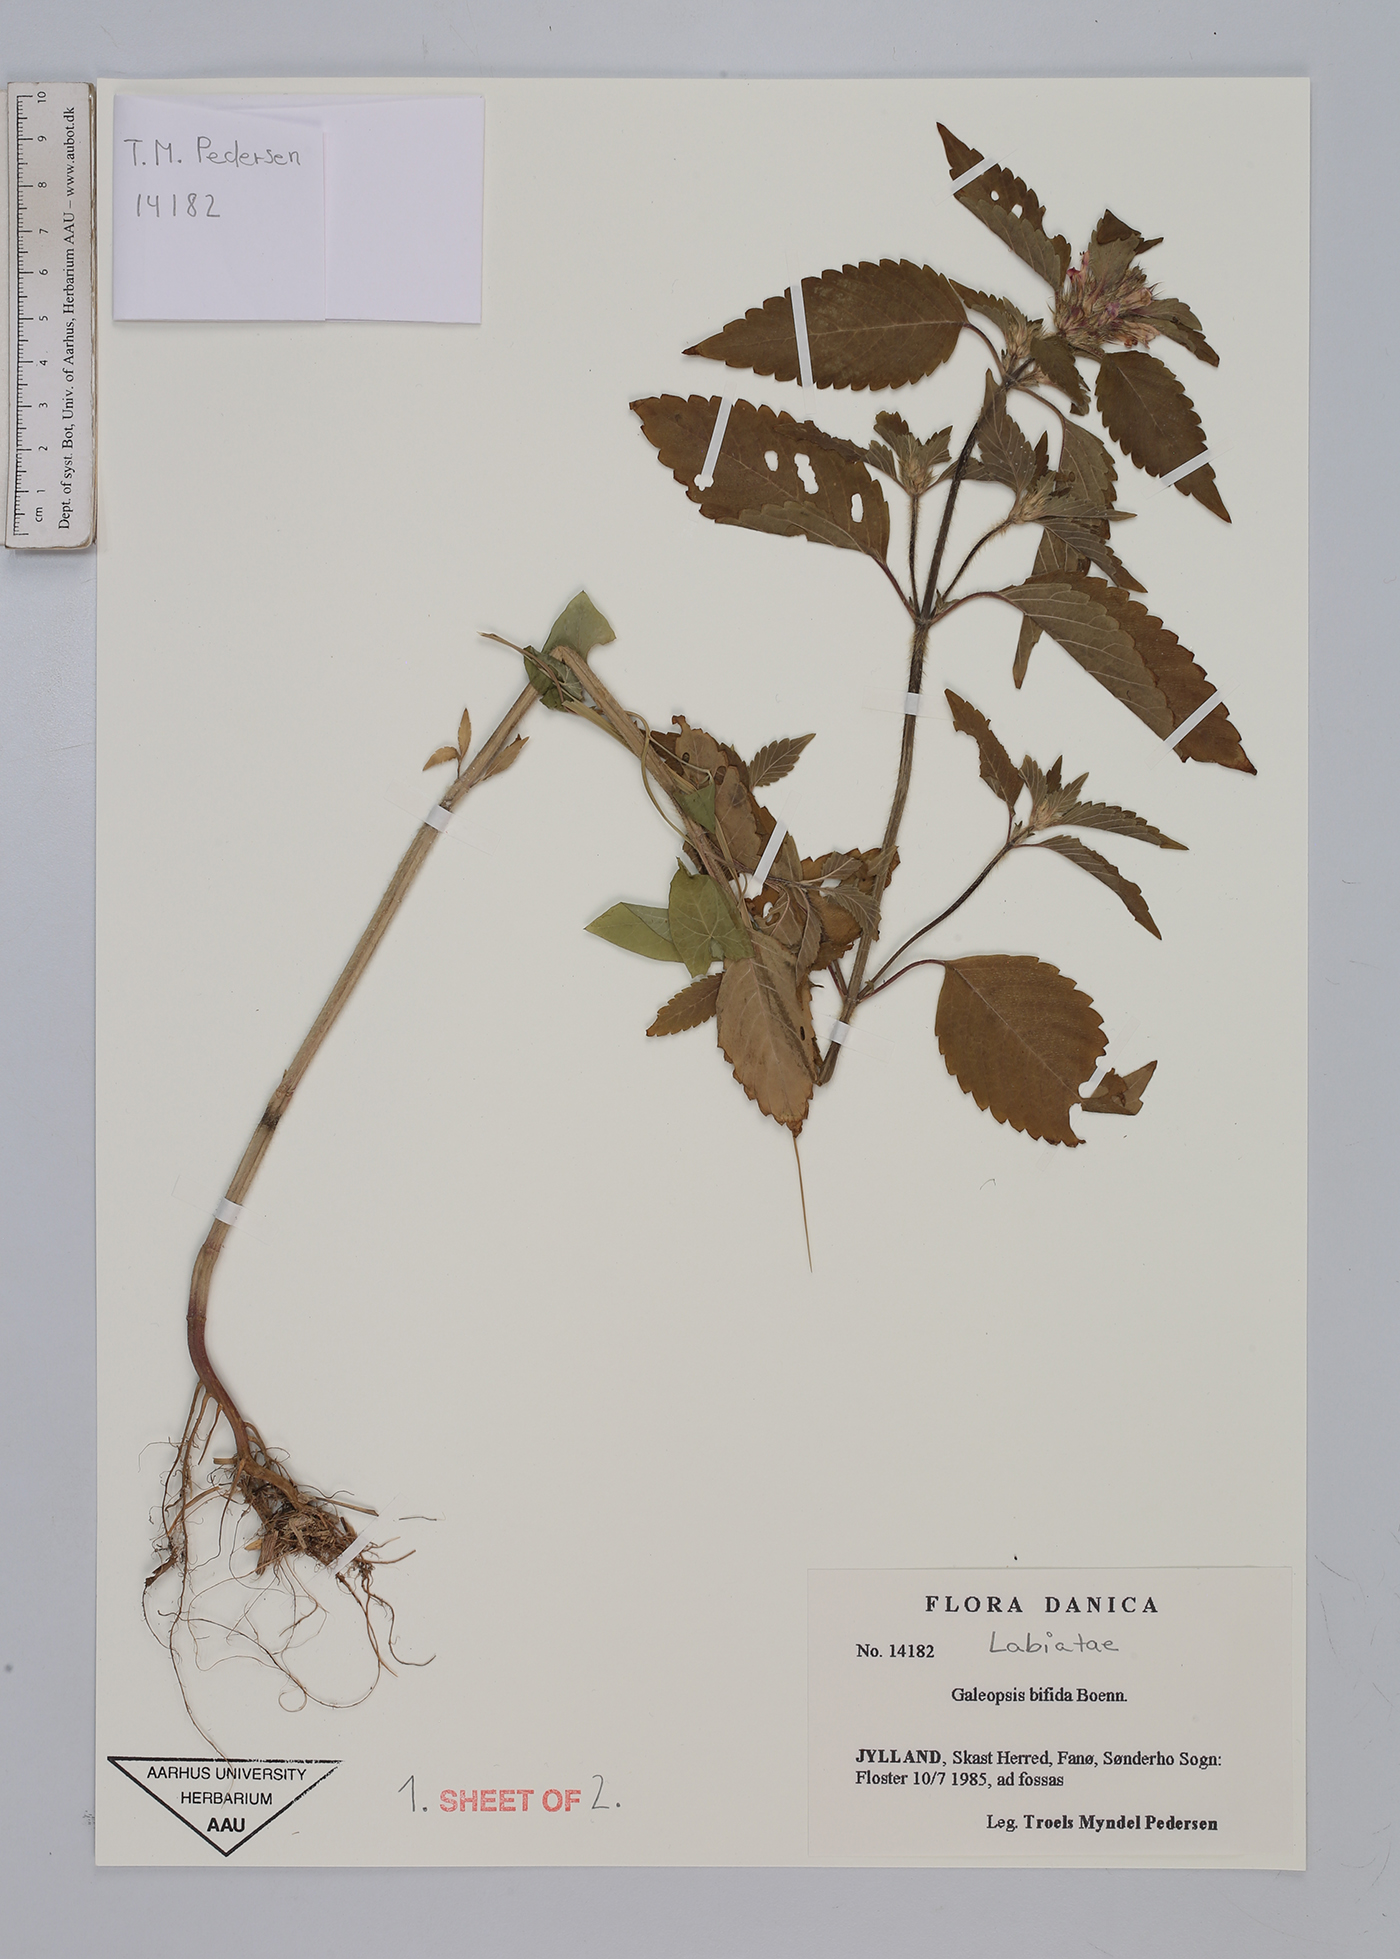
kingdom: Plantae
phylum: Tracheophyta
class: Magnoliopsida
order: Lamiales
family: Lamiaceae
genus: Galeopsis
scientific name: Galeopsis bifida
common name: Bifid hemp-nettle
